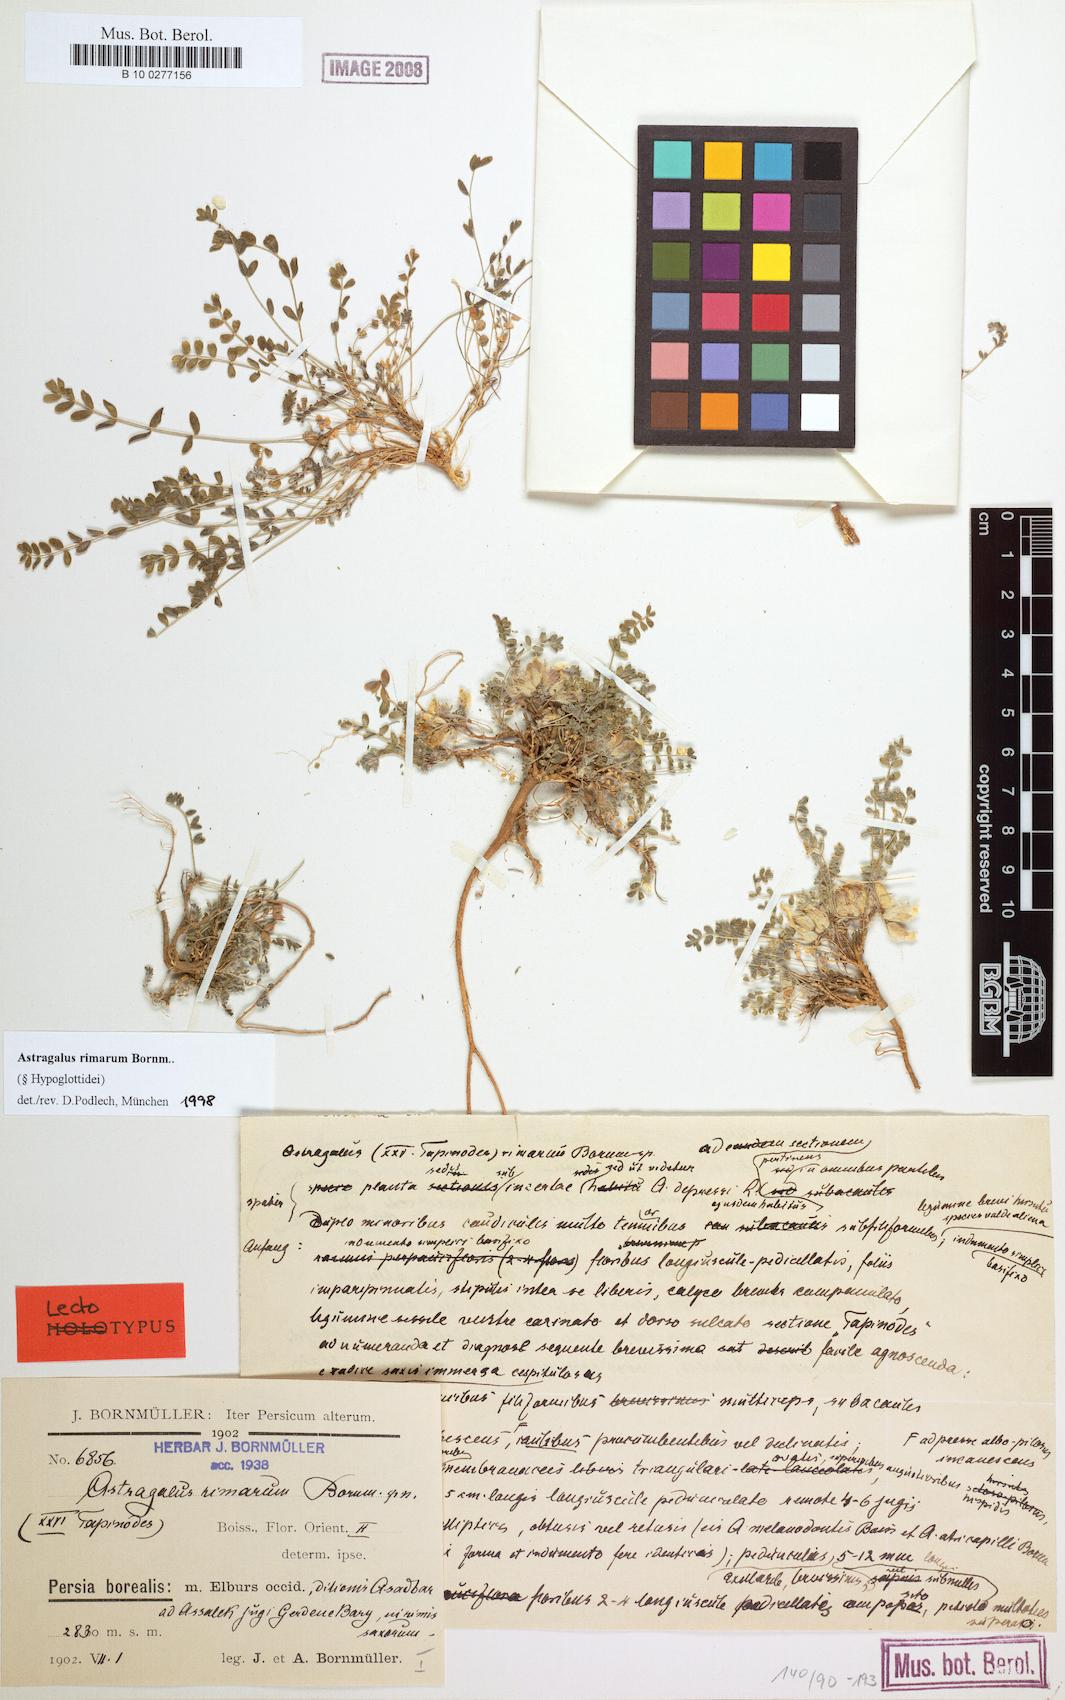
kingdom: Plantae
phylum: Tracheophyta
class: Magnoliopsida
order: Fabales
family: Fabaceae
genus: Astragalus
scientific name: Astragalus rimarum
